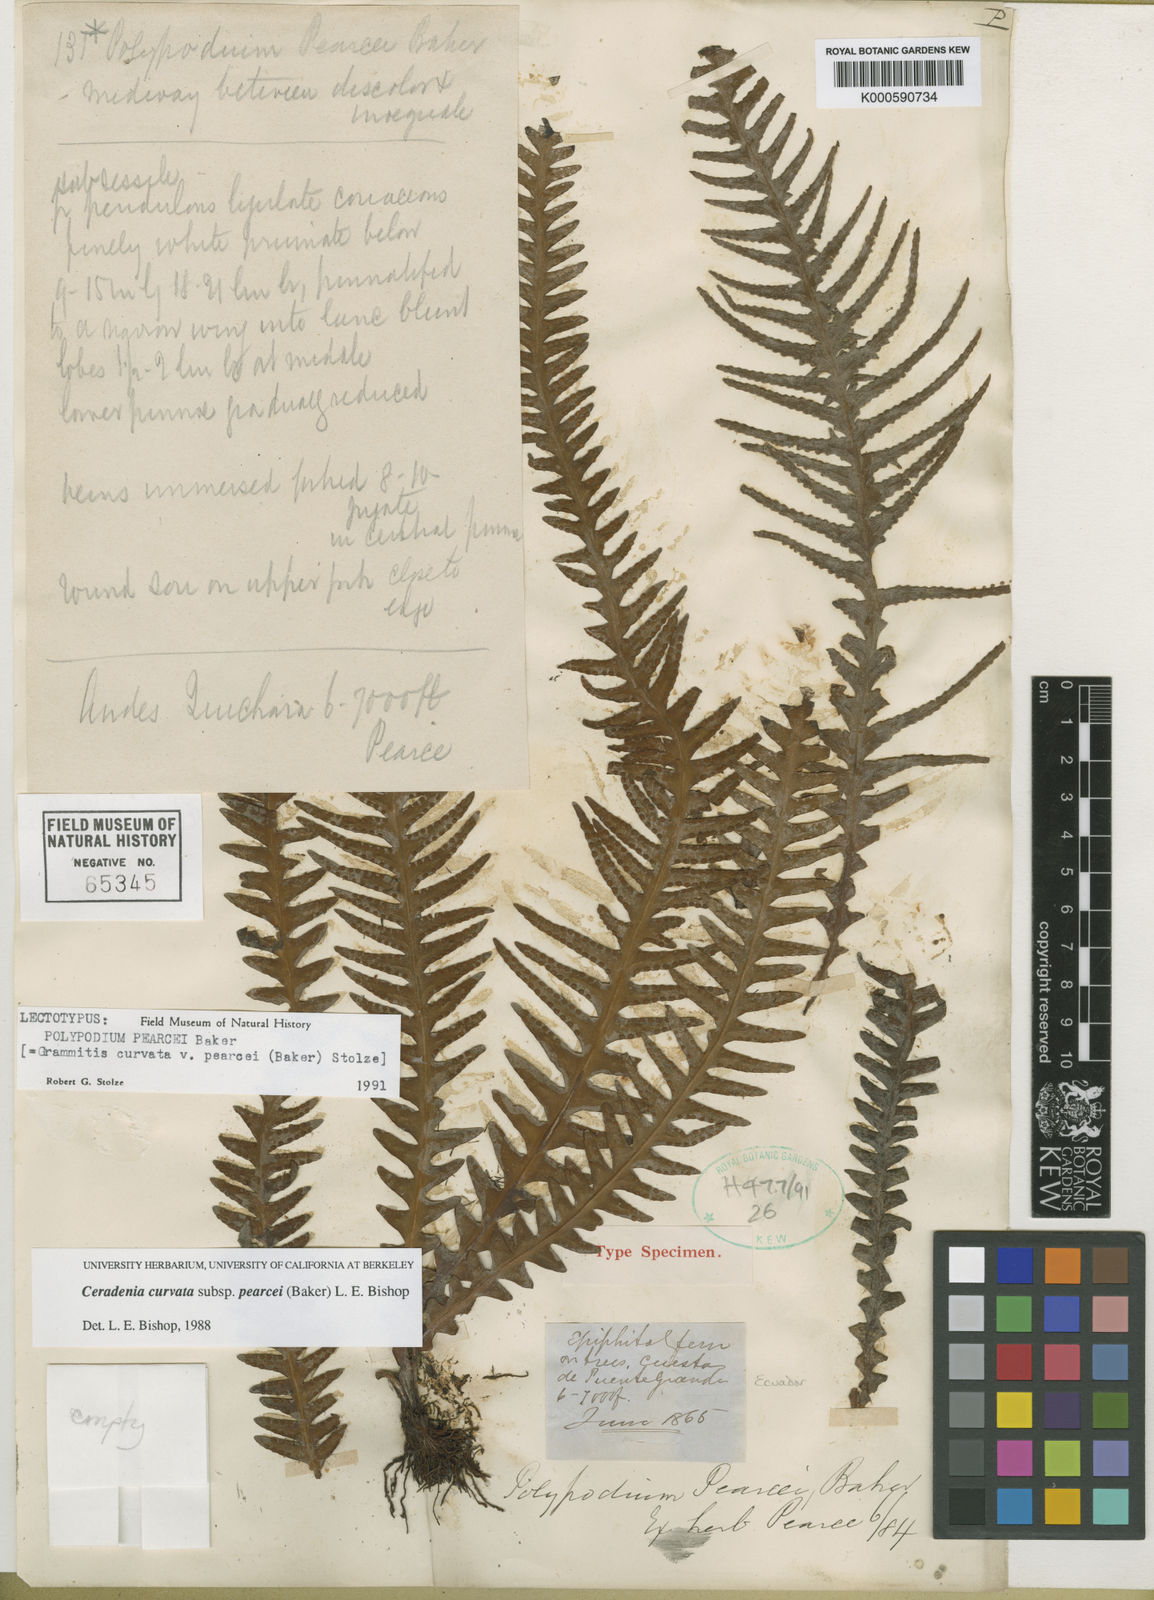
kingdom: Plantae
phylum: Tracheophyta
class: Polypodiopsida
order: Polypodiales
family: Polypodiaceae
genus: Ceradenia
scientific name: Ceradenia pearcei
